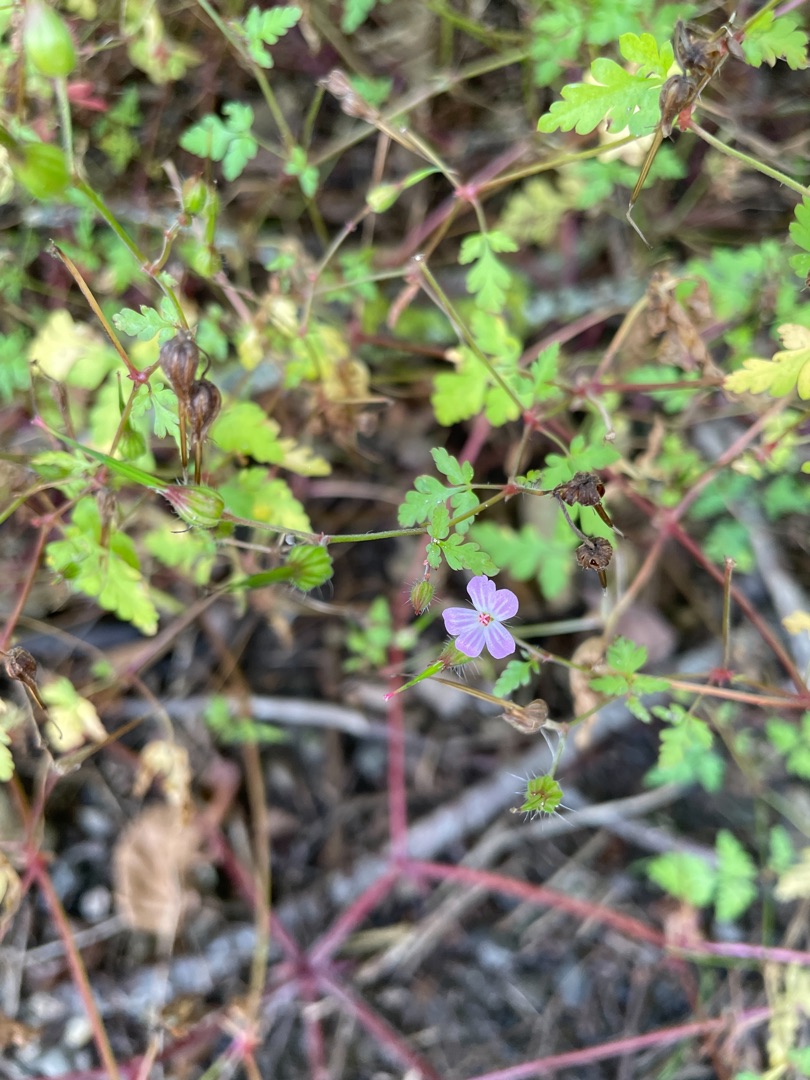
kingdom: Plantae
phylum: Tracheophyta
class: Magnoliopsida
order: Geraniales
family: Geraniaceae
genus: Geranium
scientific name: Geranium robertianum
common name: Stinkende storkenæb
